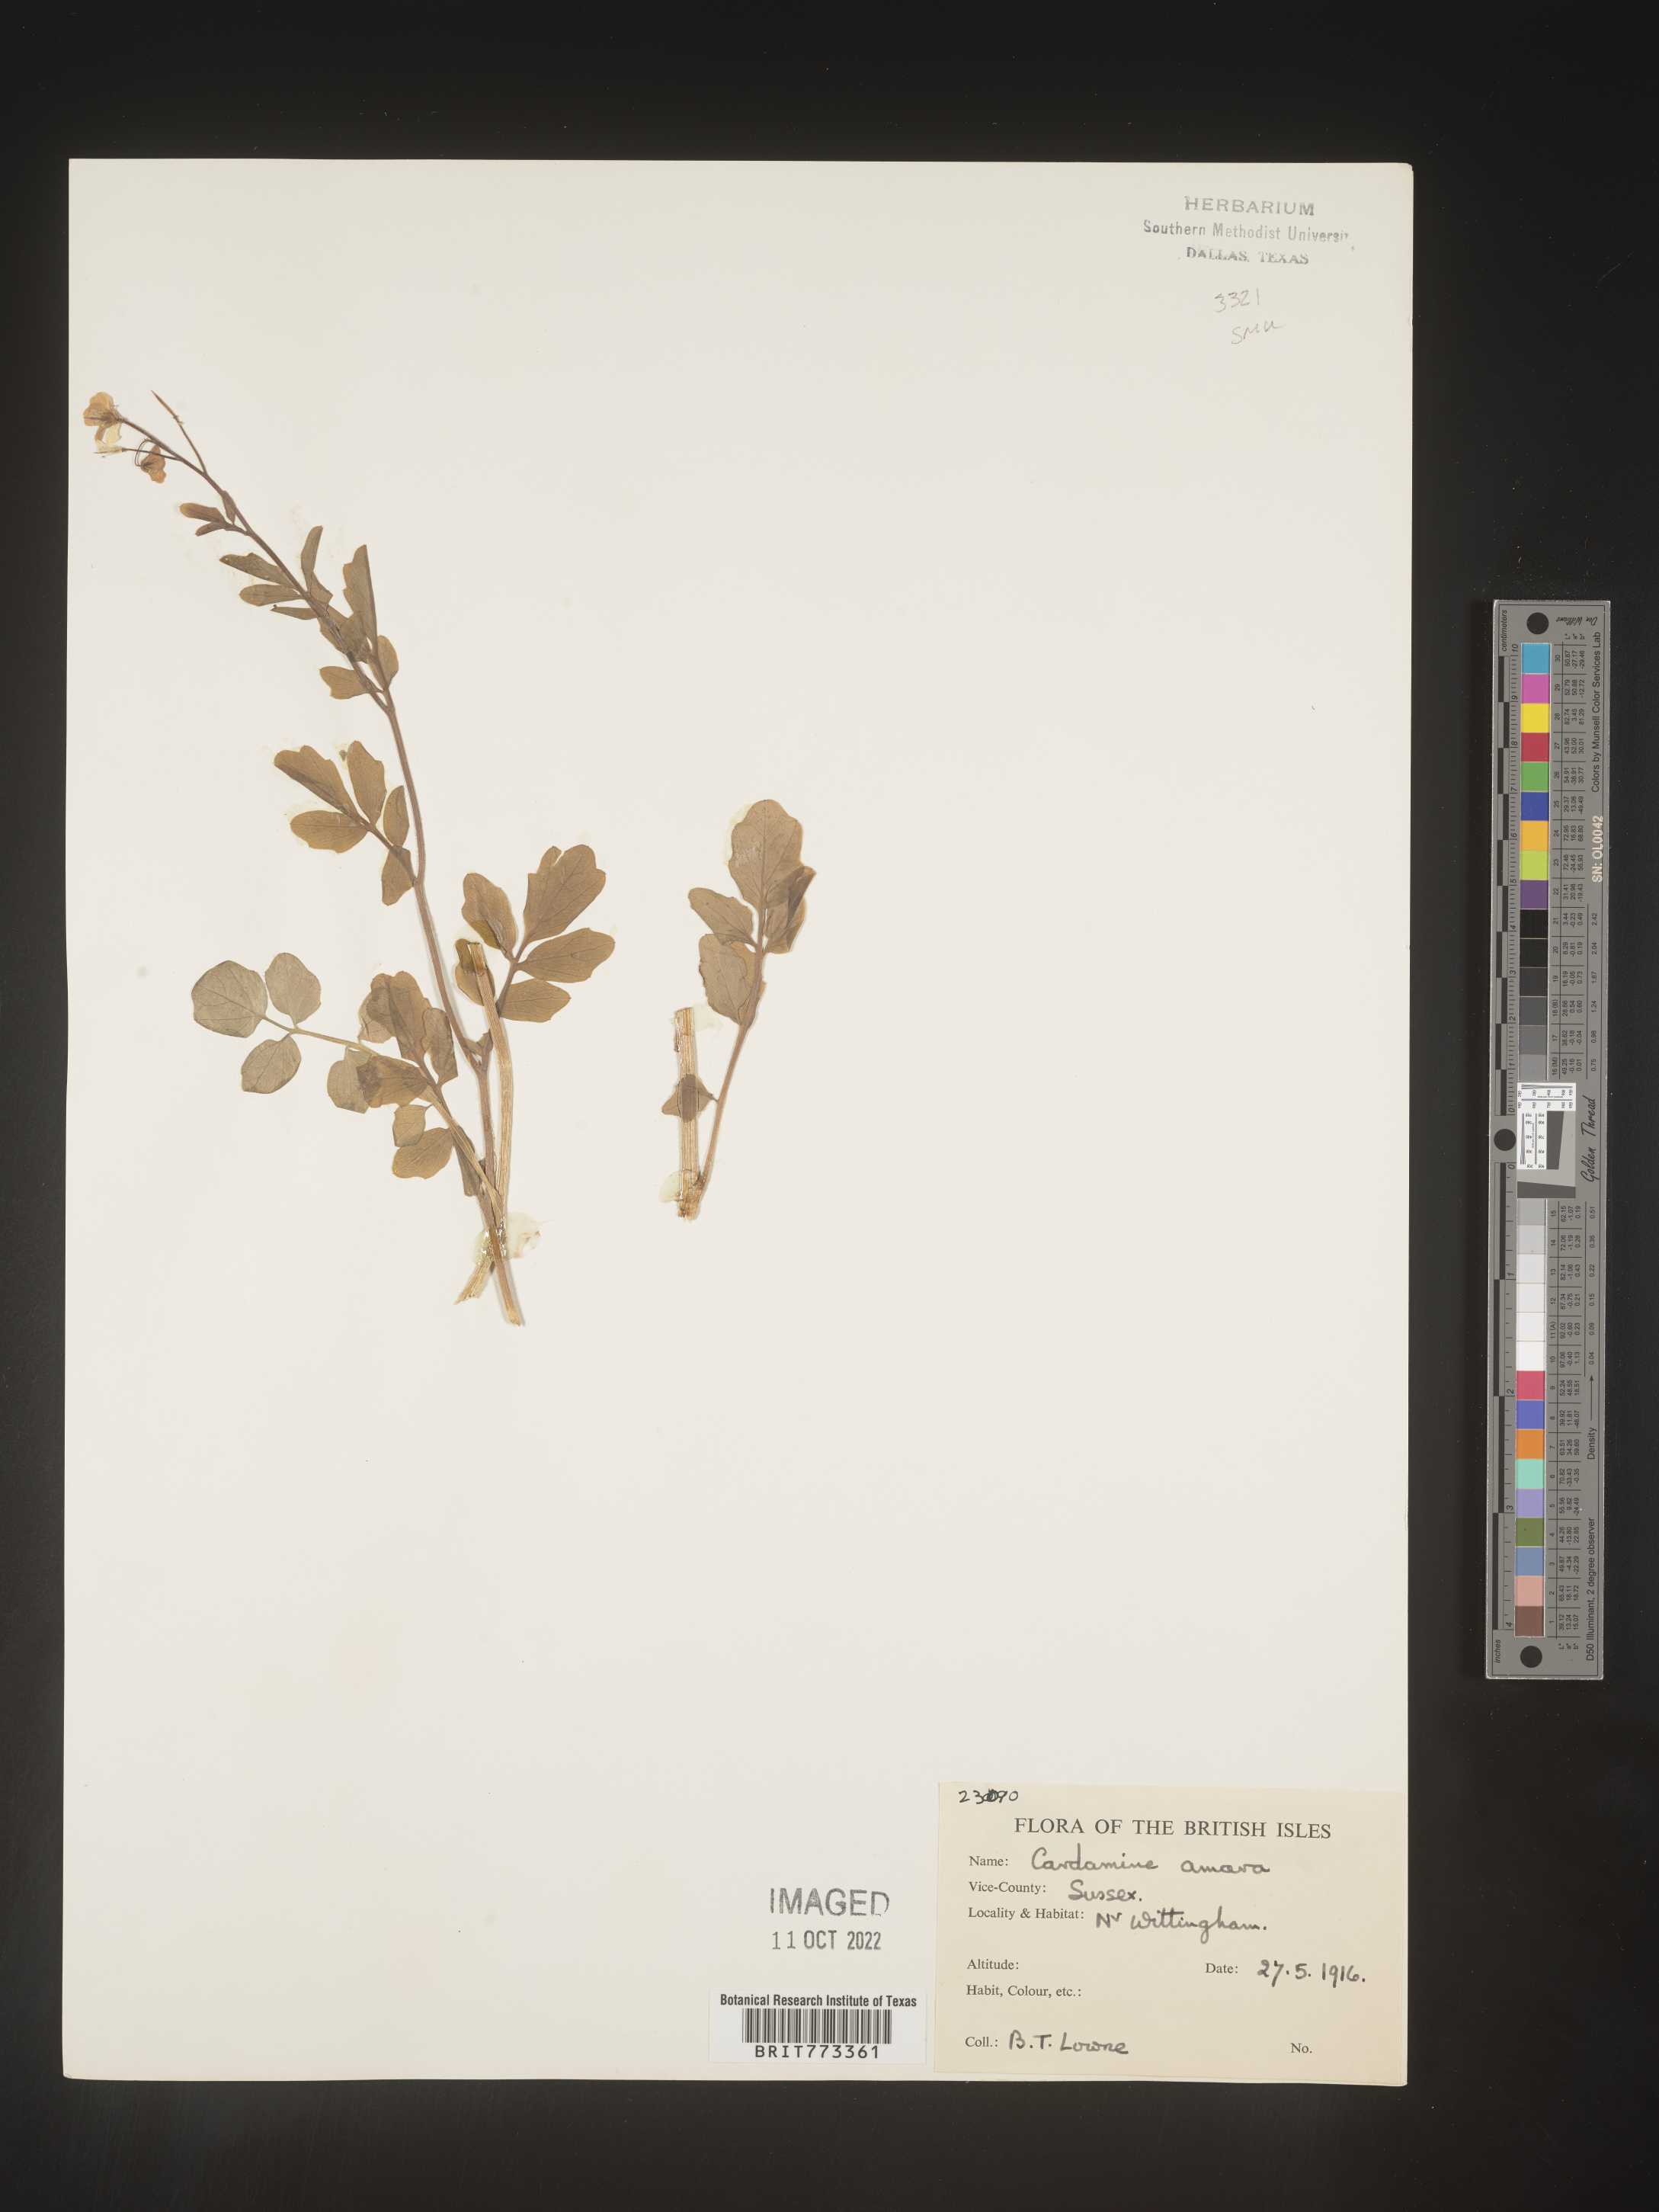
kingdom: Plantae
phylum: Tracheophyta
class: Magnoliopsida
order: Brassicales
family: Brassicaceae
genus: Cardamine
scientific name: Cardamine
